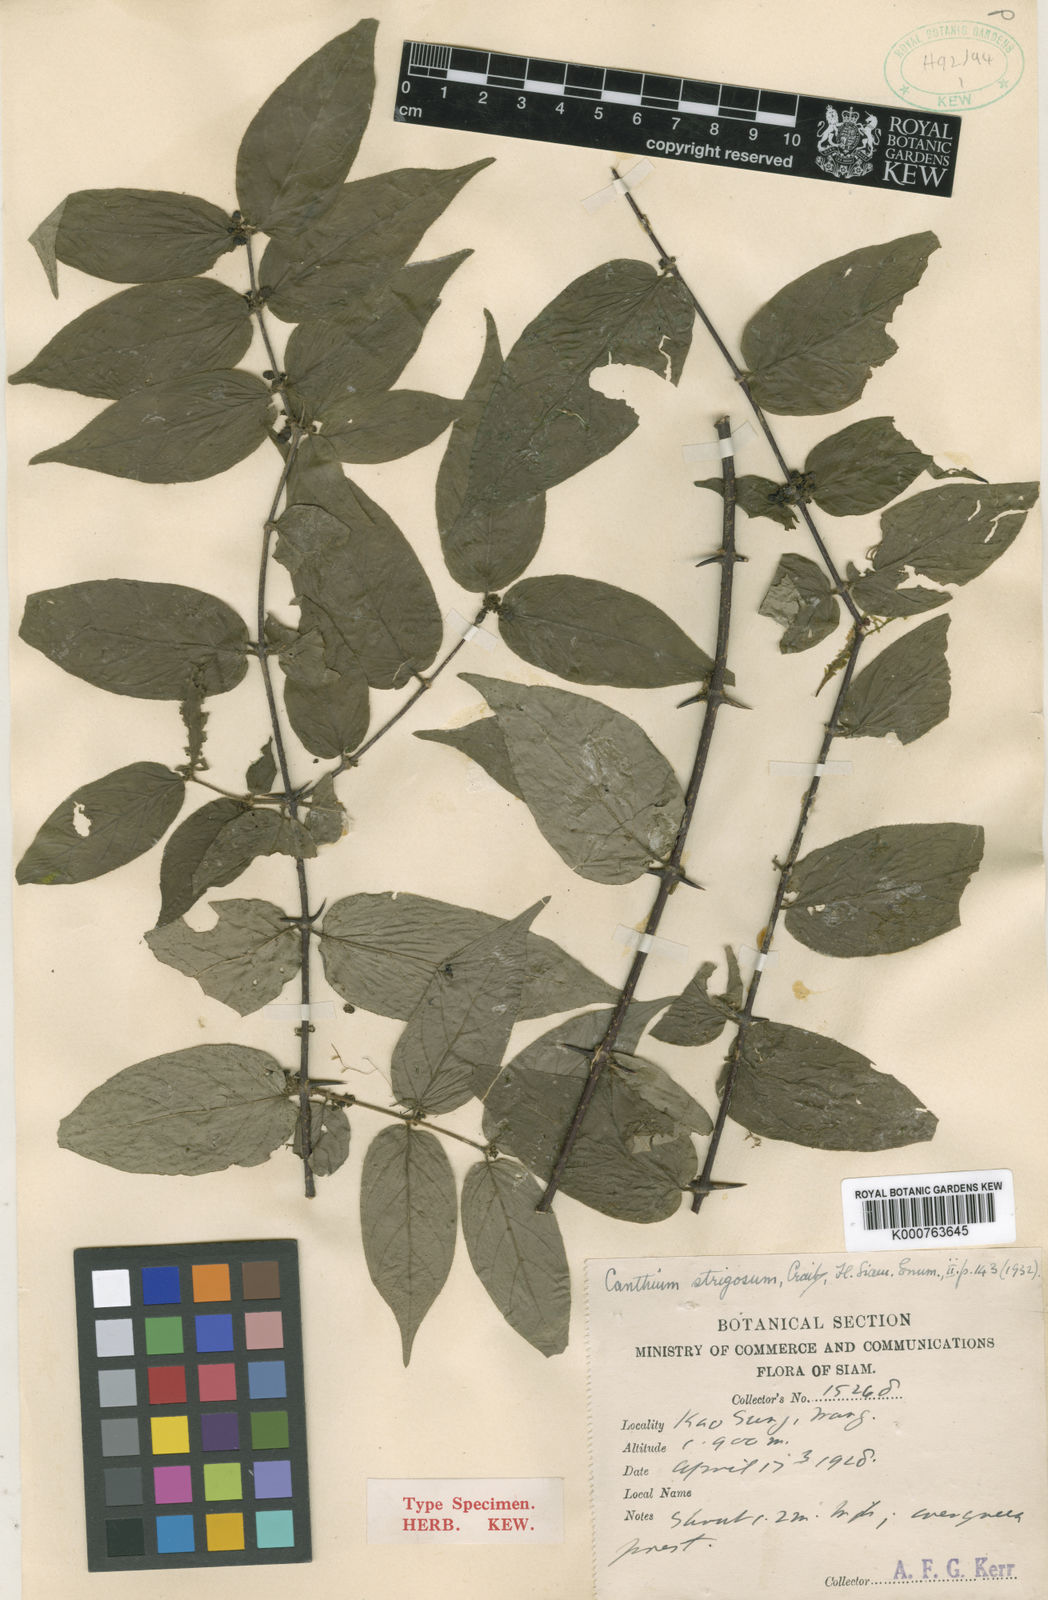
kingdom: Plantae
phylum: Tracheophyta
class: Magnoliopsida
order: Gentianales
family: Rubiaceae
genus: Canthium
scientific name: Canthium strigosum
